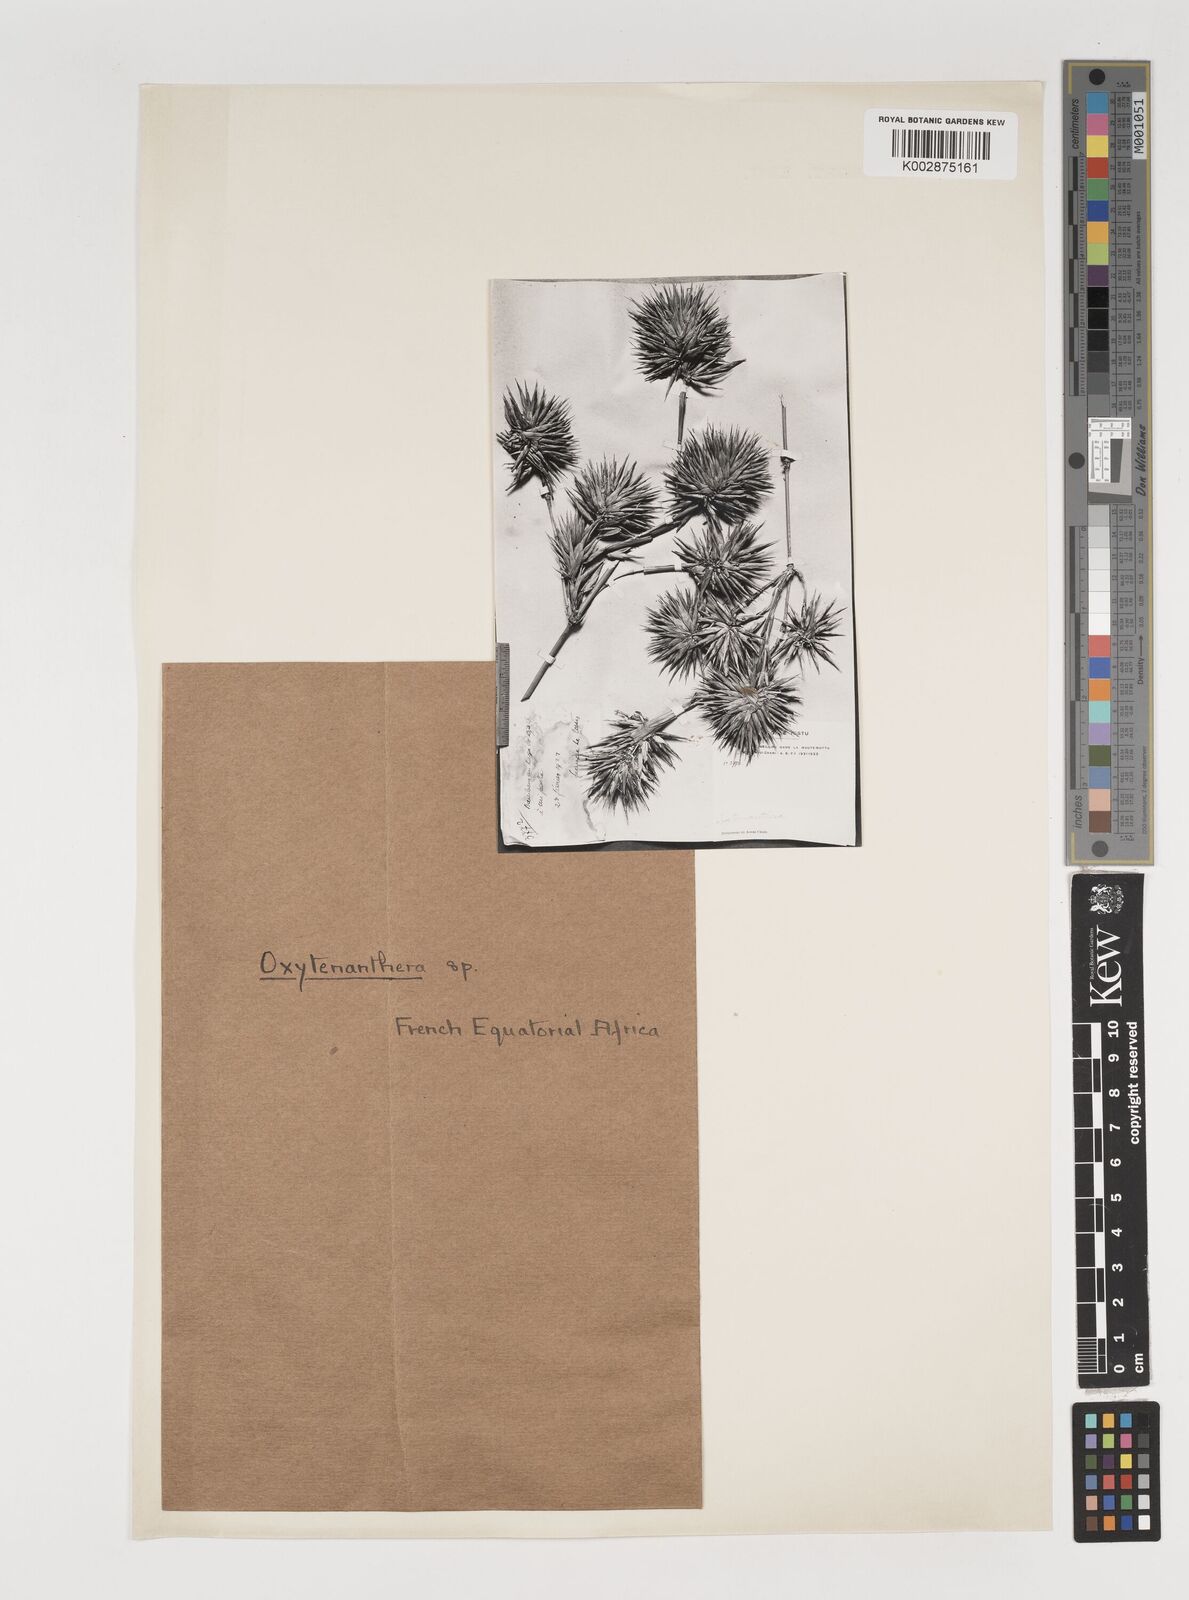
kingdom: Plantae
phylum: Tracheophyta
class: Liliopsida
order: Poales
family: Poaceae
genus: Oxytenanthera
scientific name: Oxytenanthera abyssinica
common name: Wine bamboo
